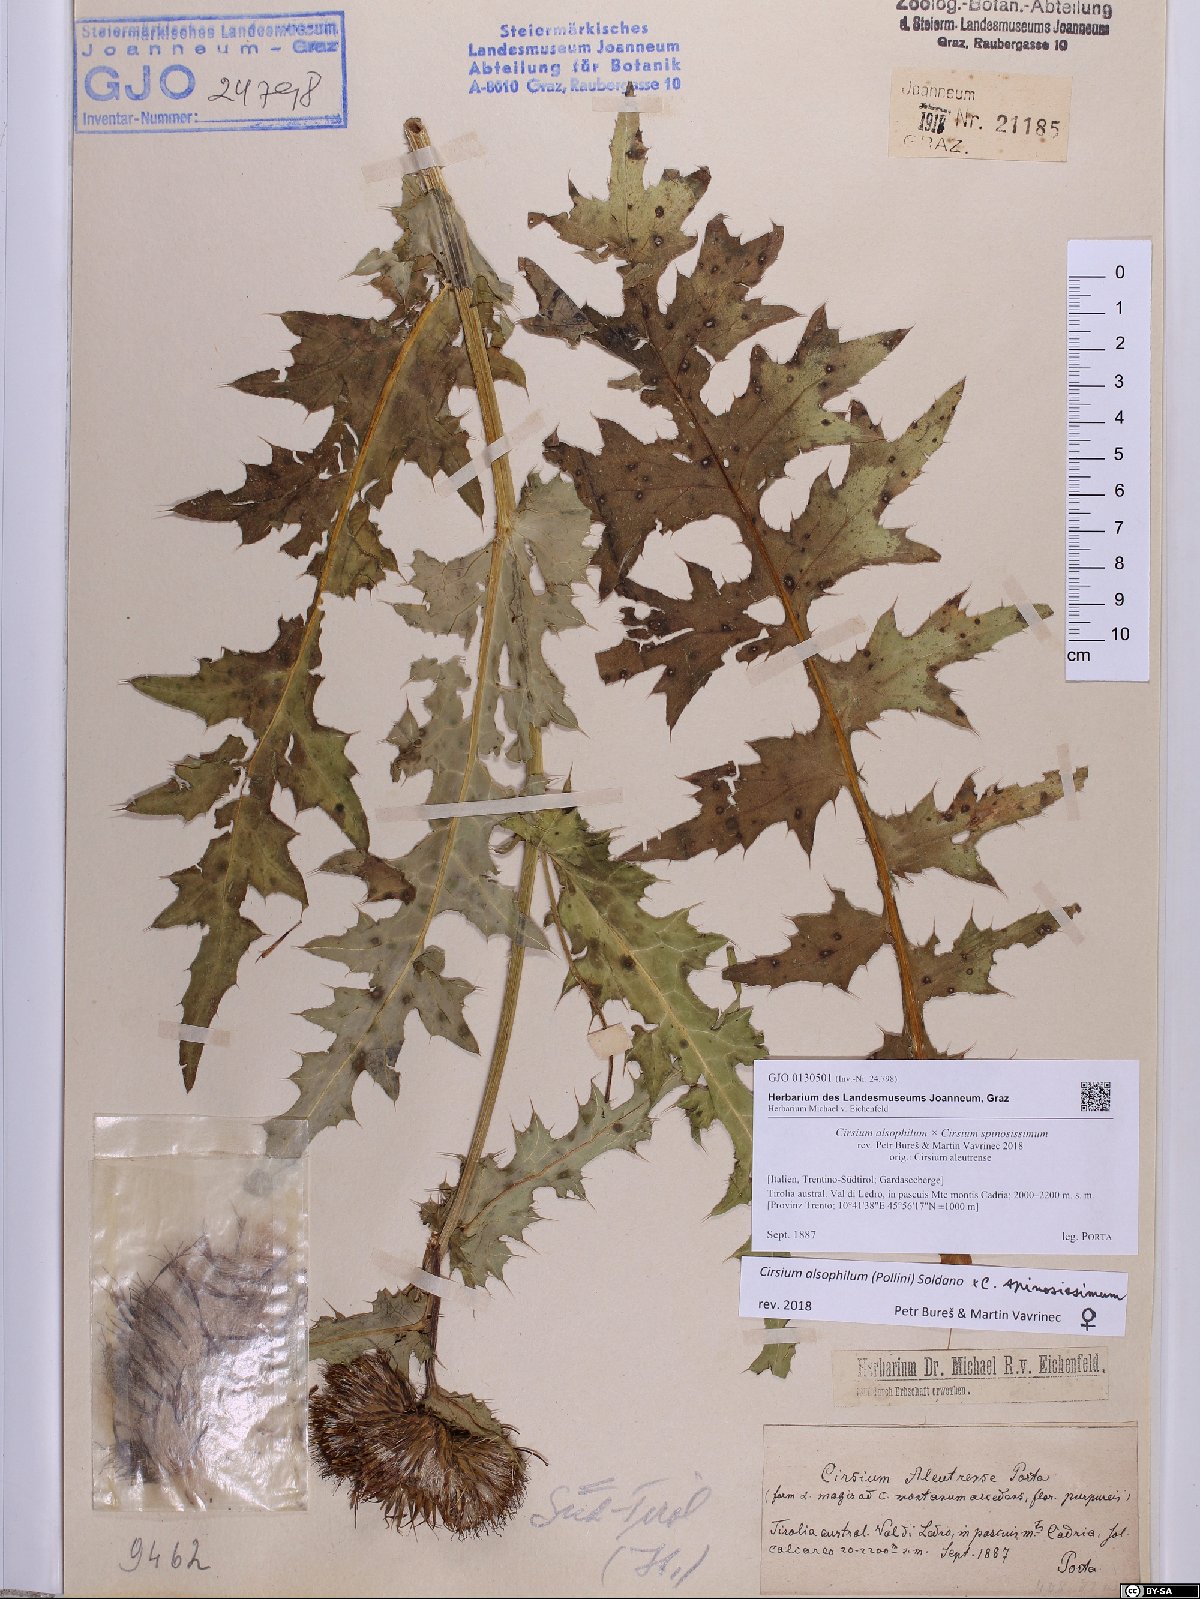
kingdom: Plantae
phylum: Tracheophyta
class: Magnoliopsida
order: Asterales
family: Asteraceae
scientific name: Asteraceae
